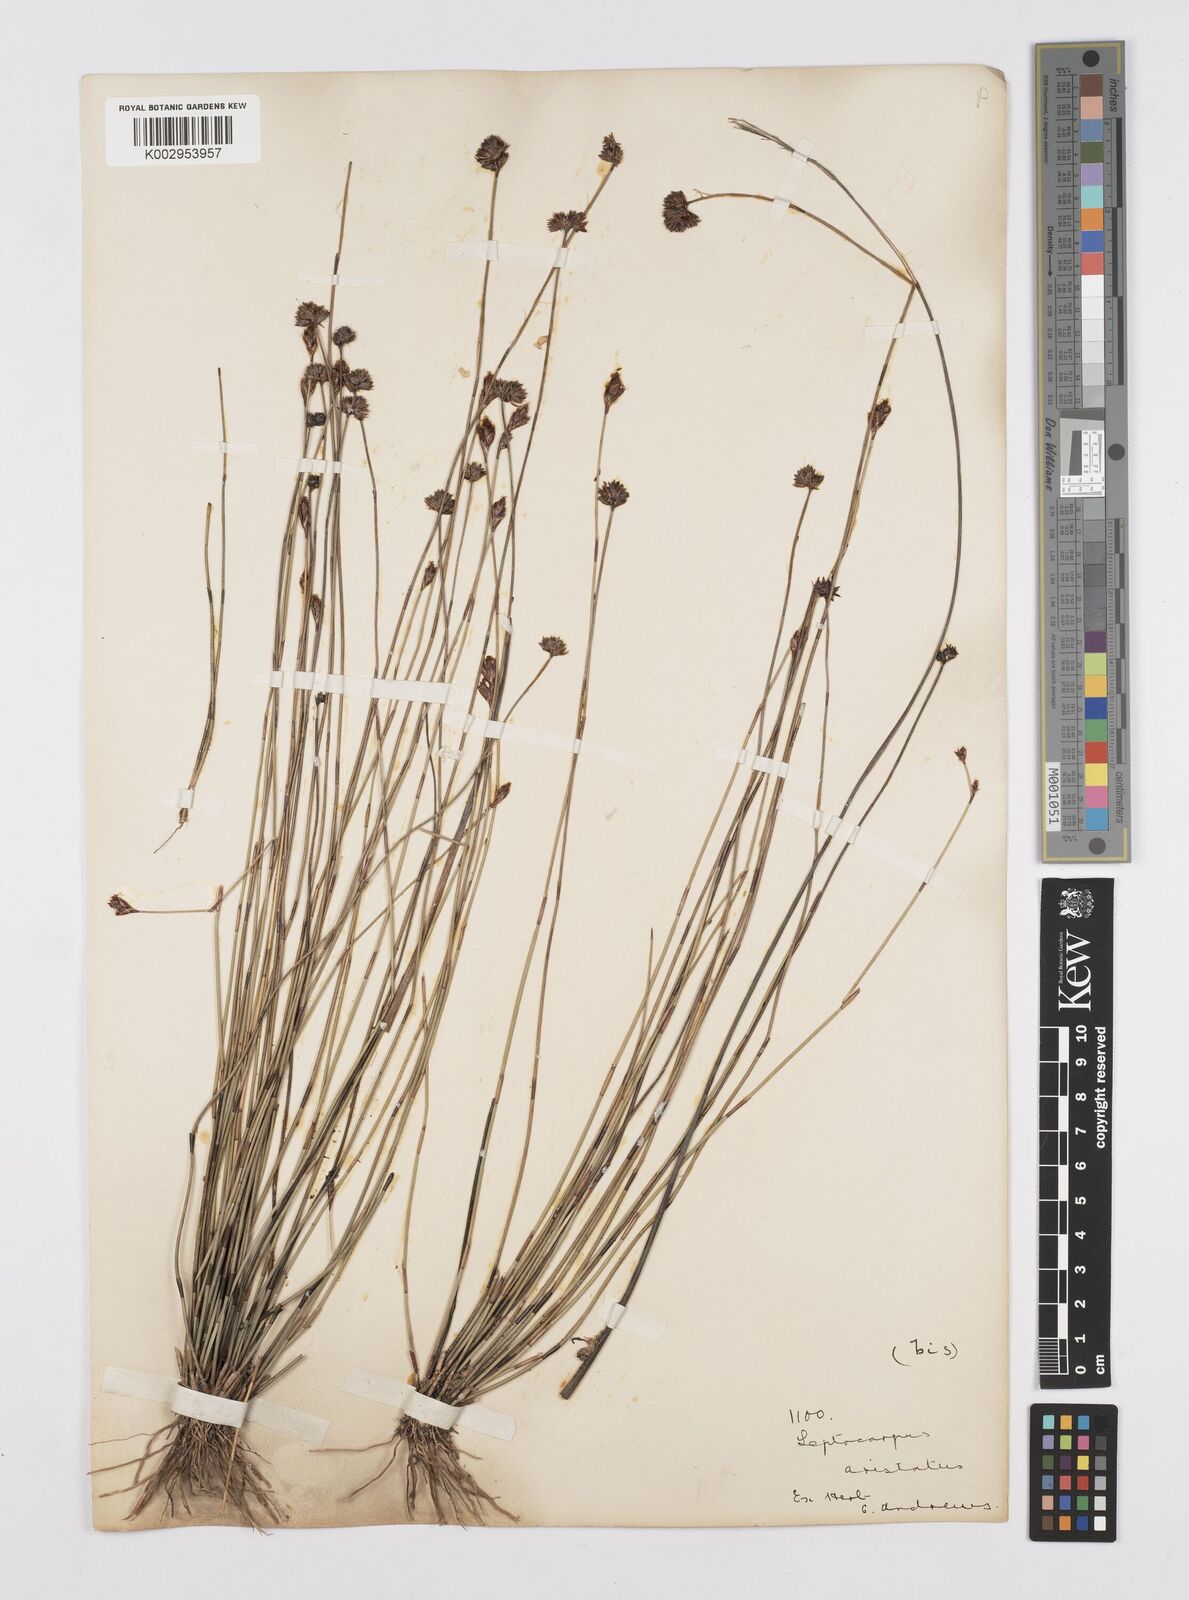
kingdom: Plantae
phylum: Tracheophyta
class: Liliopsida
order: Poales
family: Restionaceae
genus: Chaetanthus
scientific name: Chaetanthus leptocarpoides
